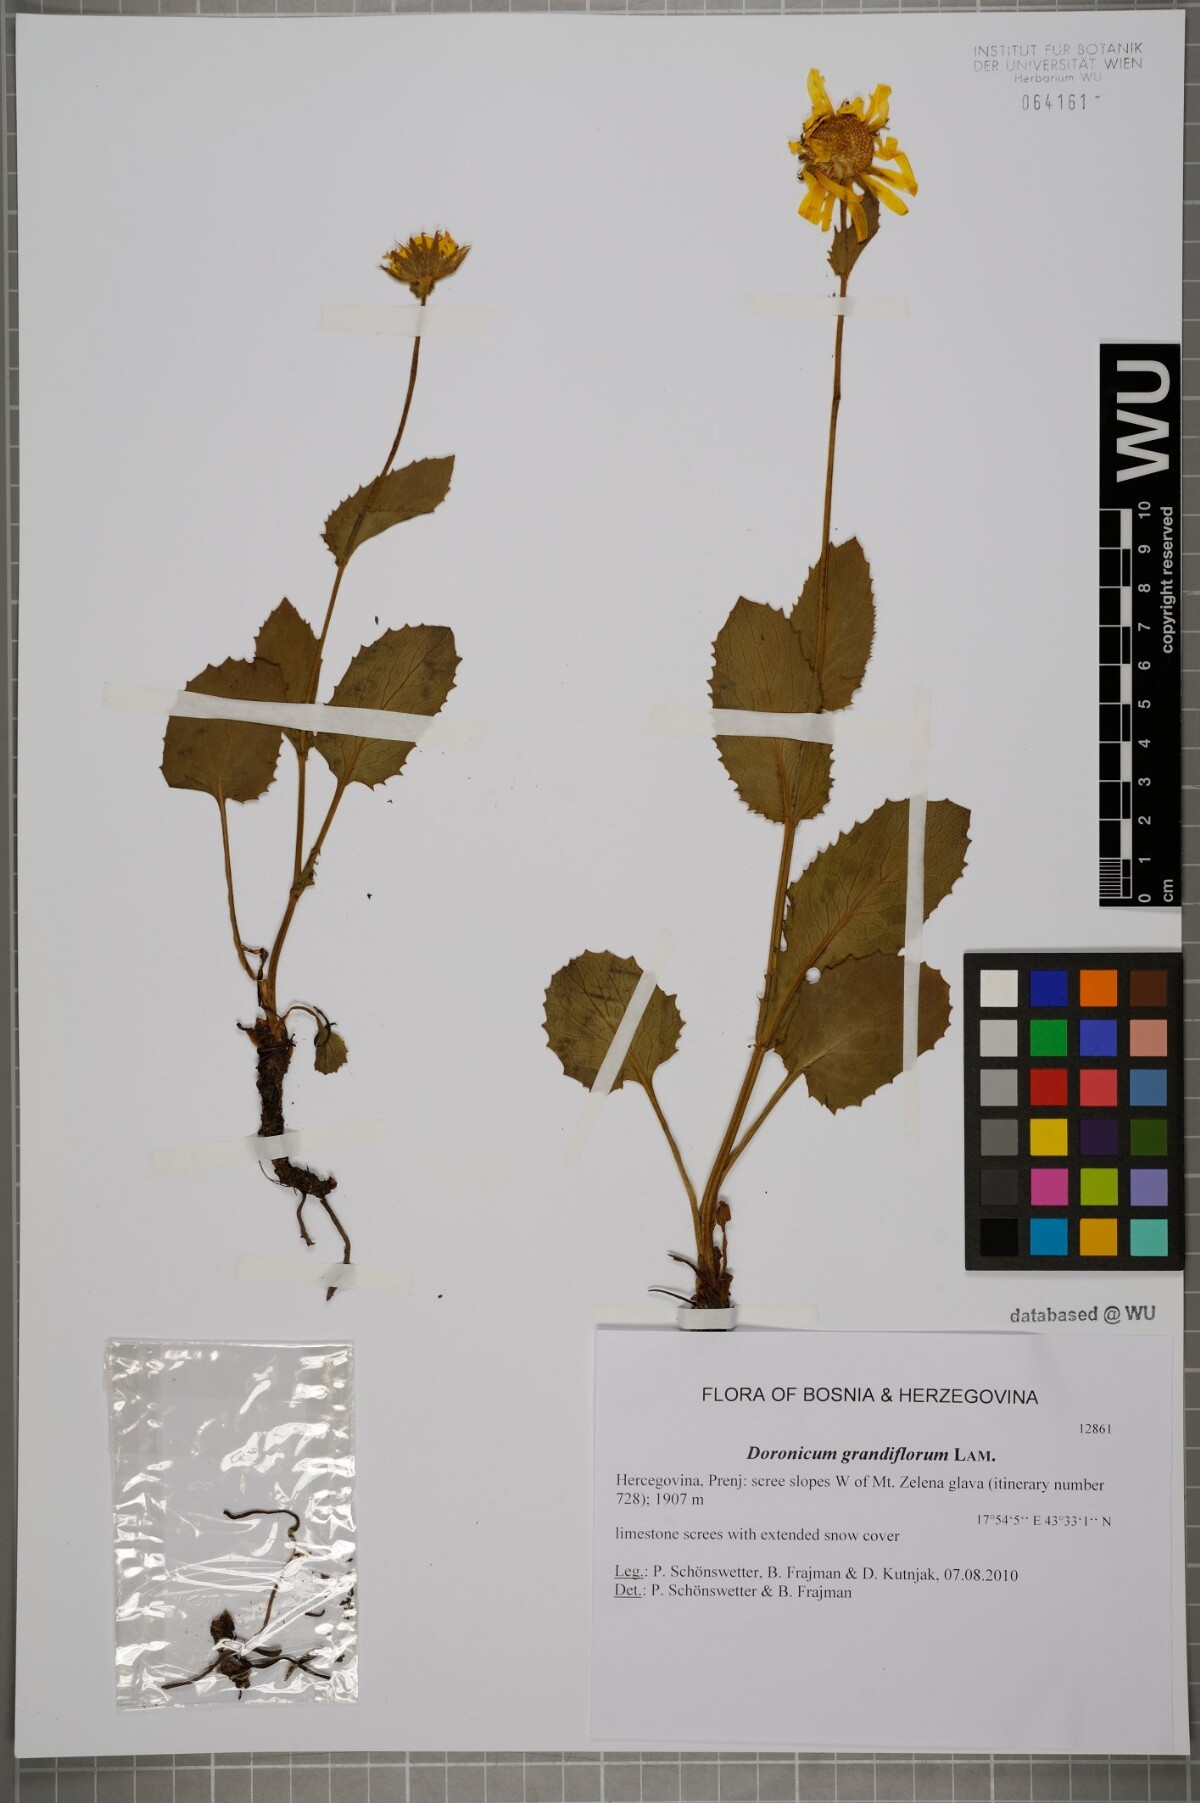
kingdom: Plantae
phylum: Tracheophyta
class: Magnoliopsida
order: Asterales
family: Asteraceae
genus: Doronicum
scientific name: Doronicum grandiflorum
